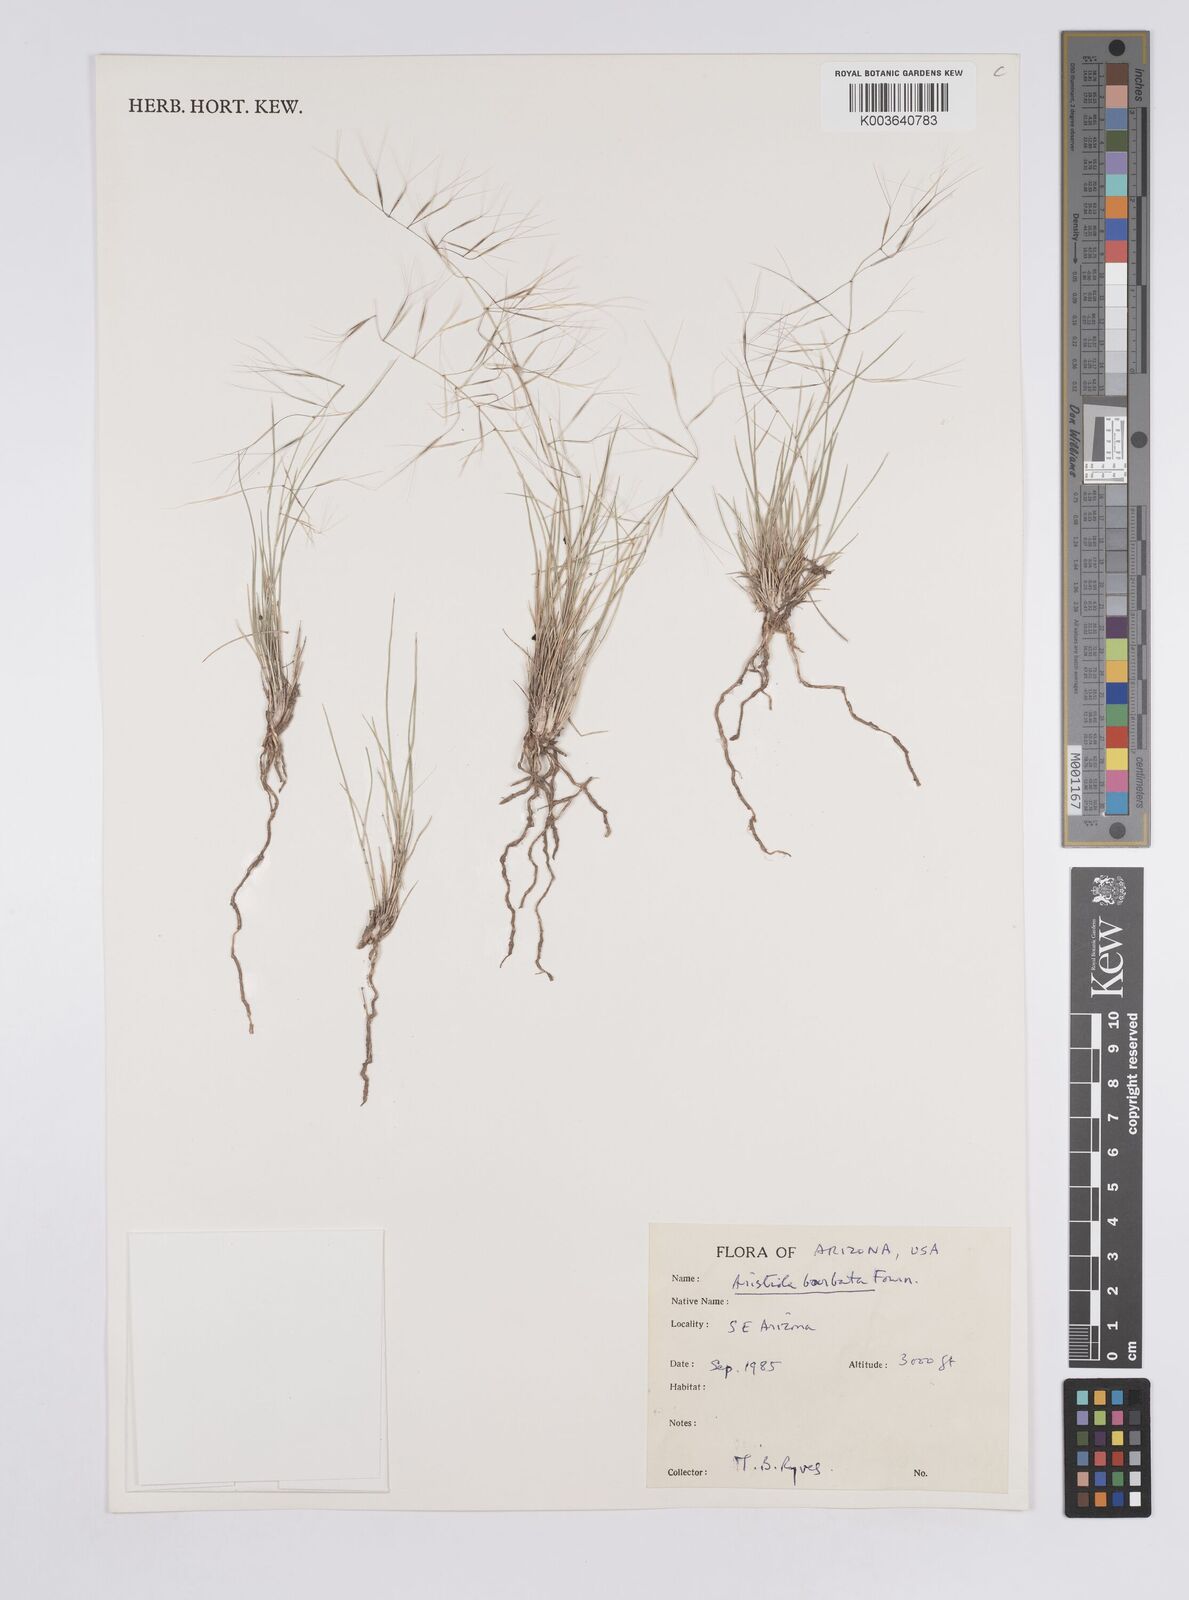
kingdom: Plantae
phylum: Tracheophyta
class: Liliopsida
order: Poales
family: Poaceae
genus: Aristida
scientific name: Aristida havardii
